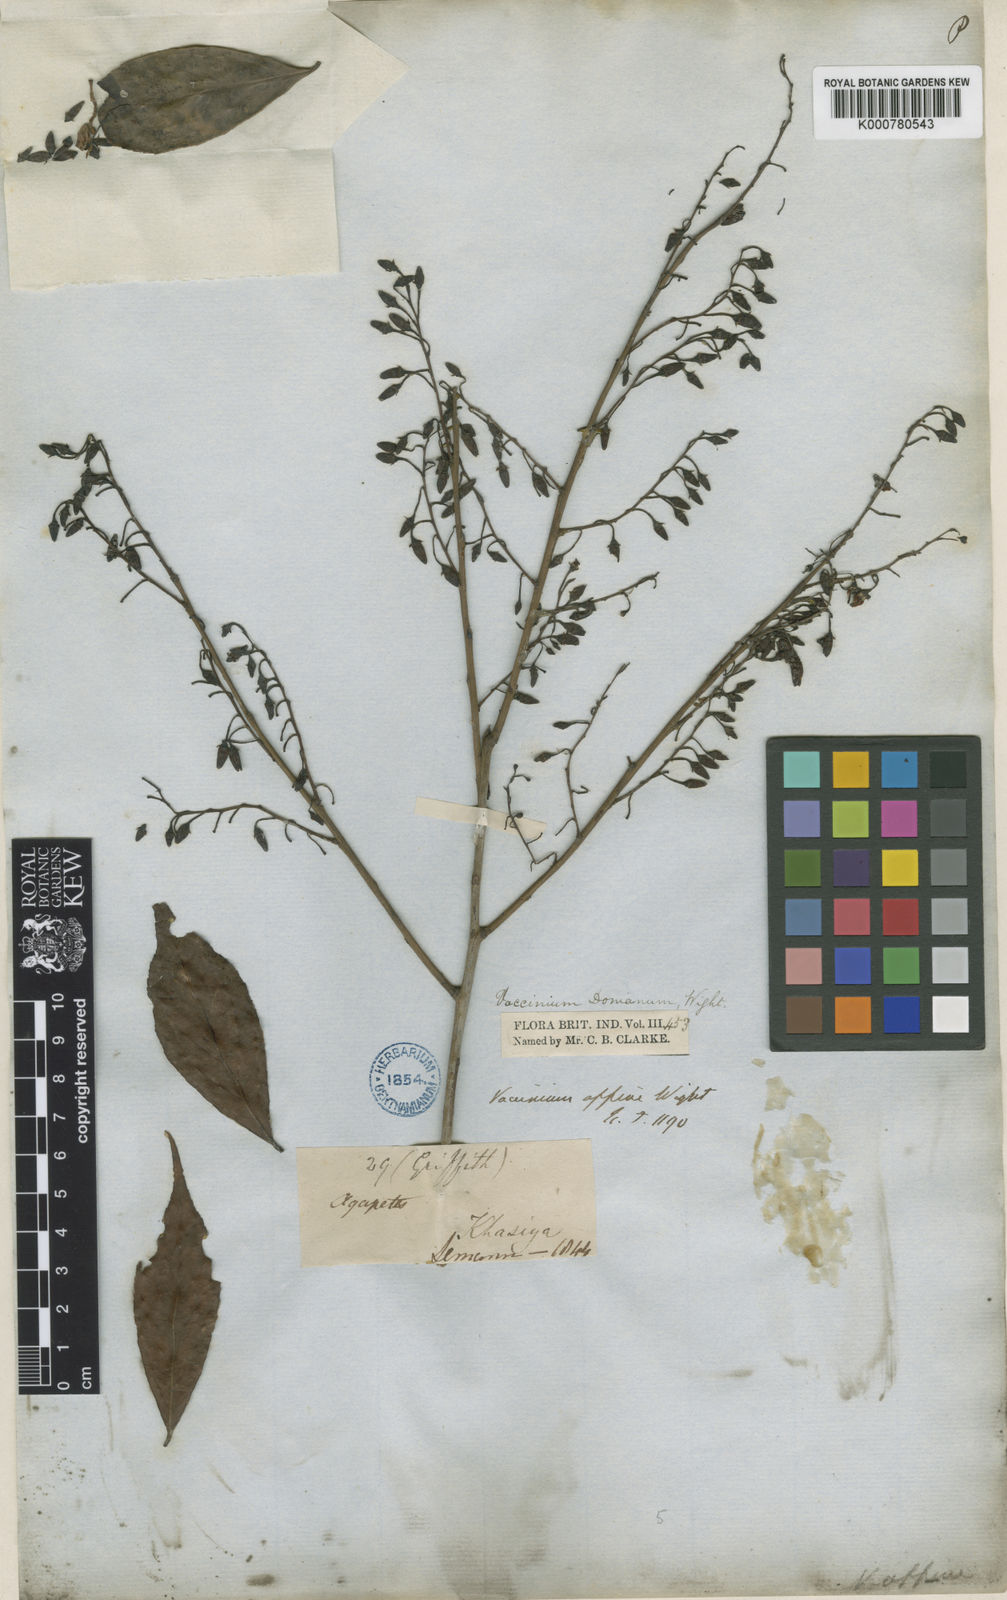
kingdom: Plantae
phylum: Tracheophyta
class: Magnoliopsida
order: Ericales
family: Ericaceae
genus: Vaccinium
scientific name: Vaccinium
